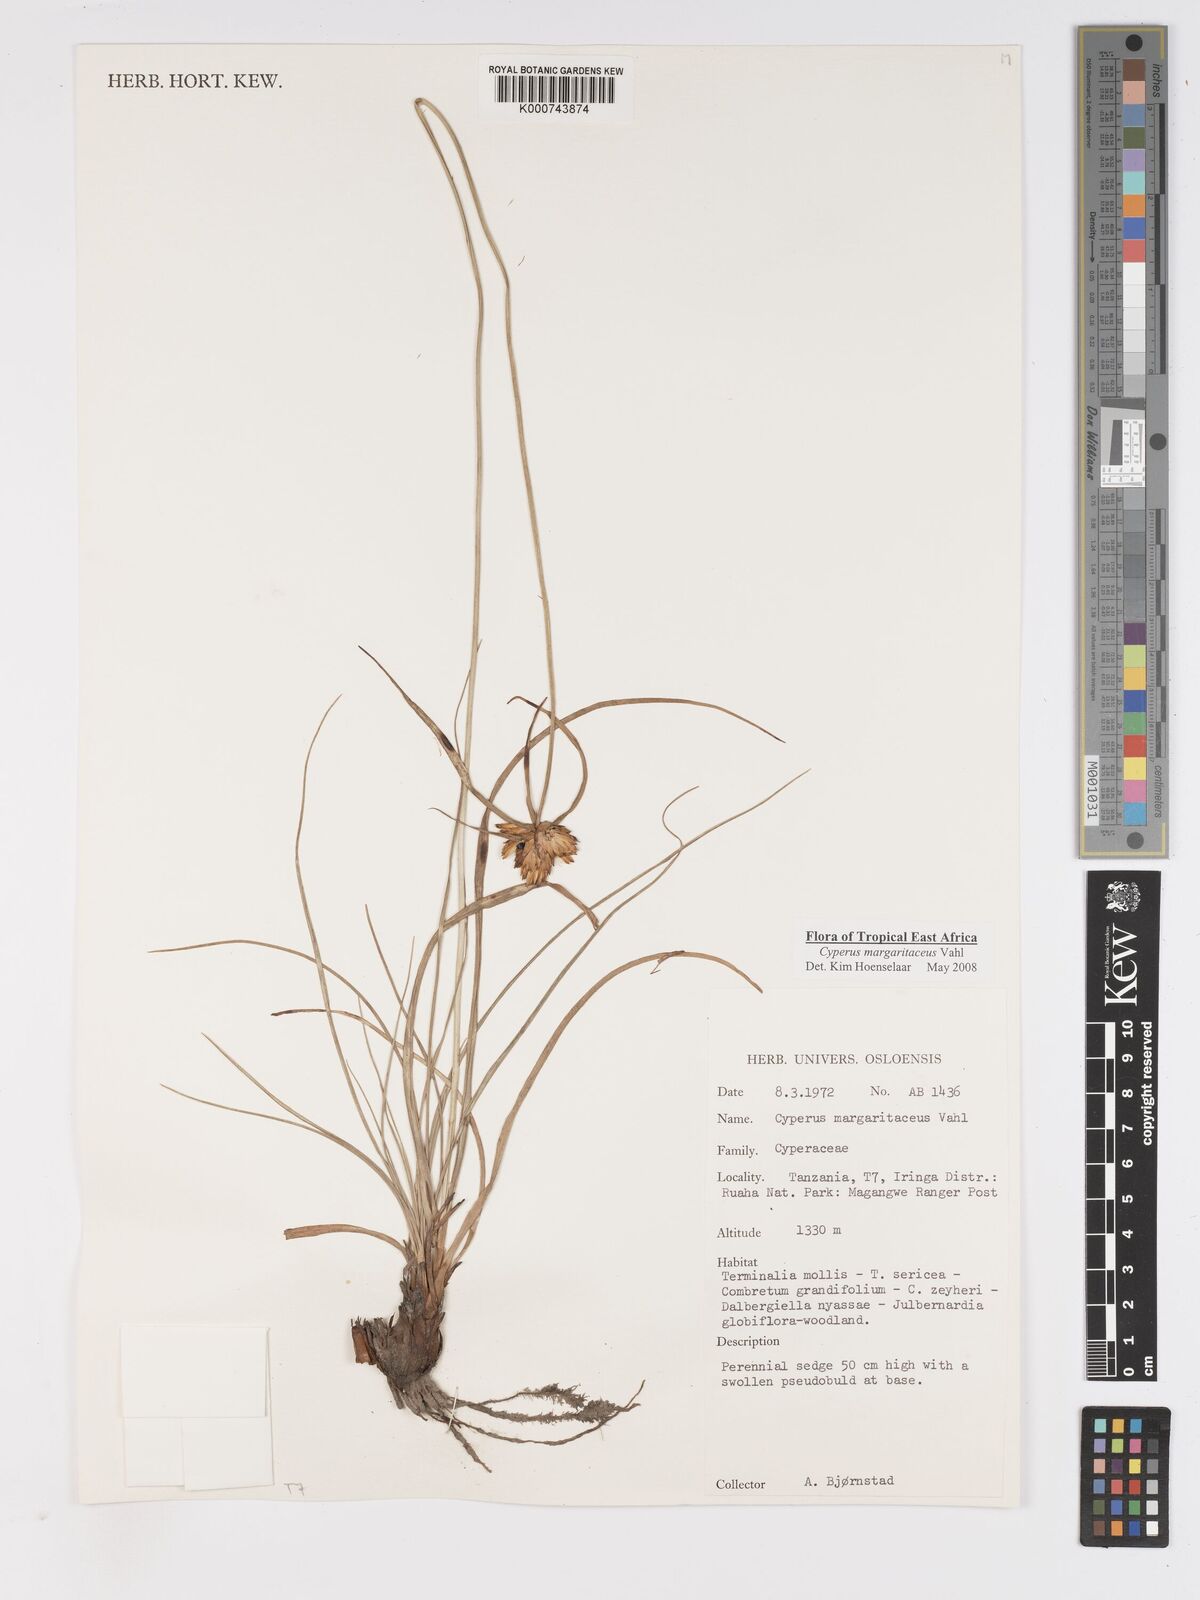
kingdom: Plantae
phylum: Tracheophyta
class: Liliopsida
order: Poales
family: Cyperaceae
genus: Cyperus
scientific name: Cyperus margaritaceus
